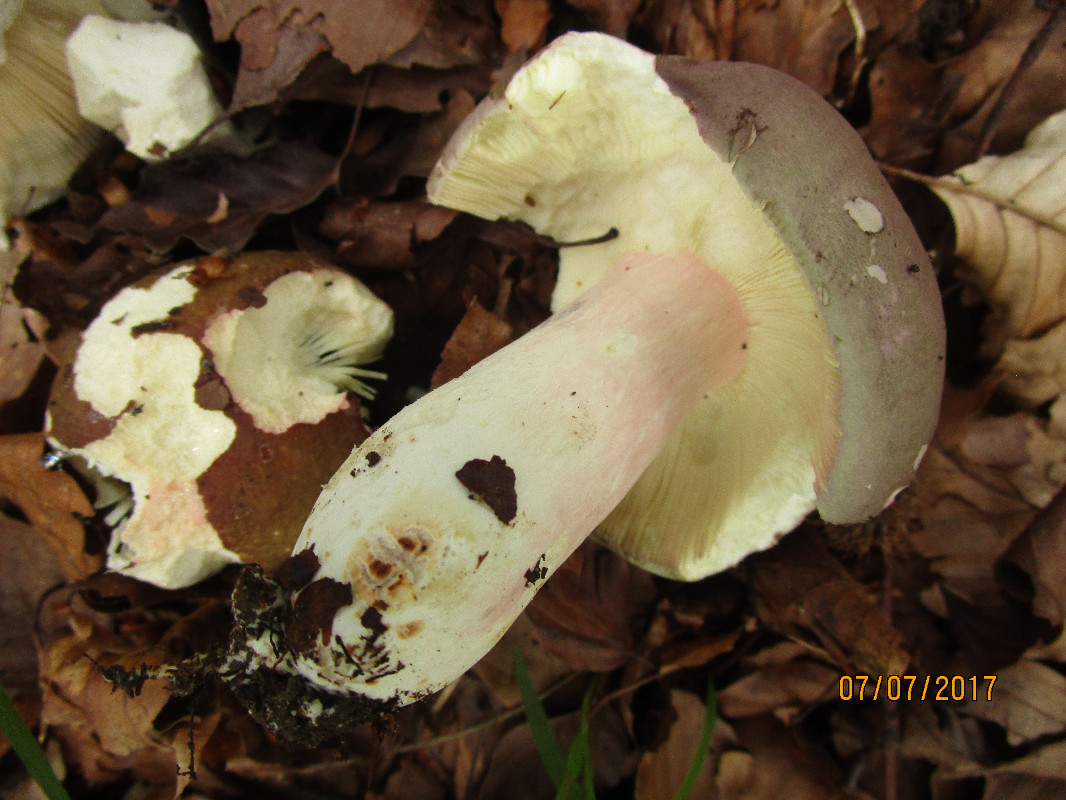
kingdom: Fungi
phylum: Basidiomycota
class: Agaricomycetes
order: Russulales
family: Russulaceae
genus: Russula
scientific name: Russula olivacea
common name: stor skørhat
